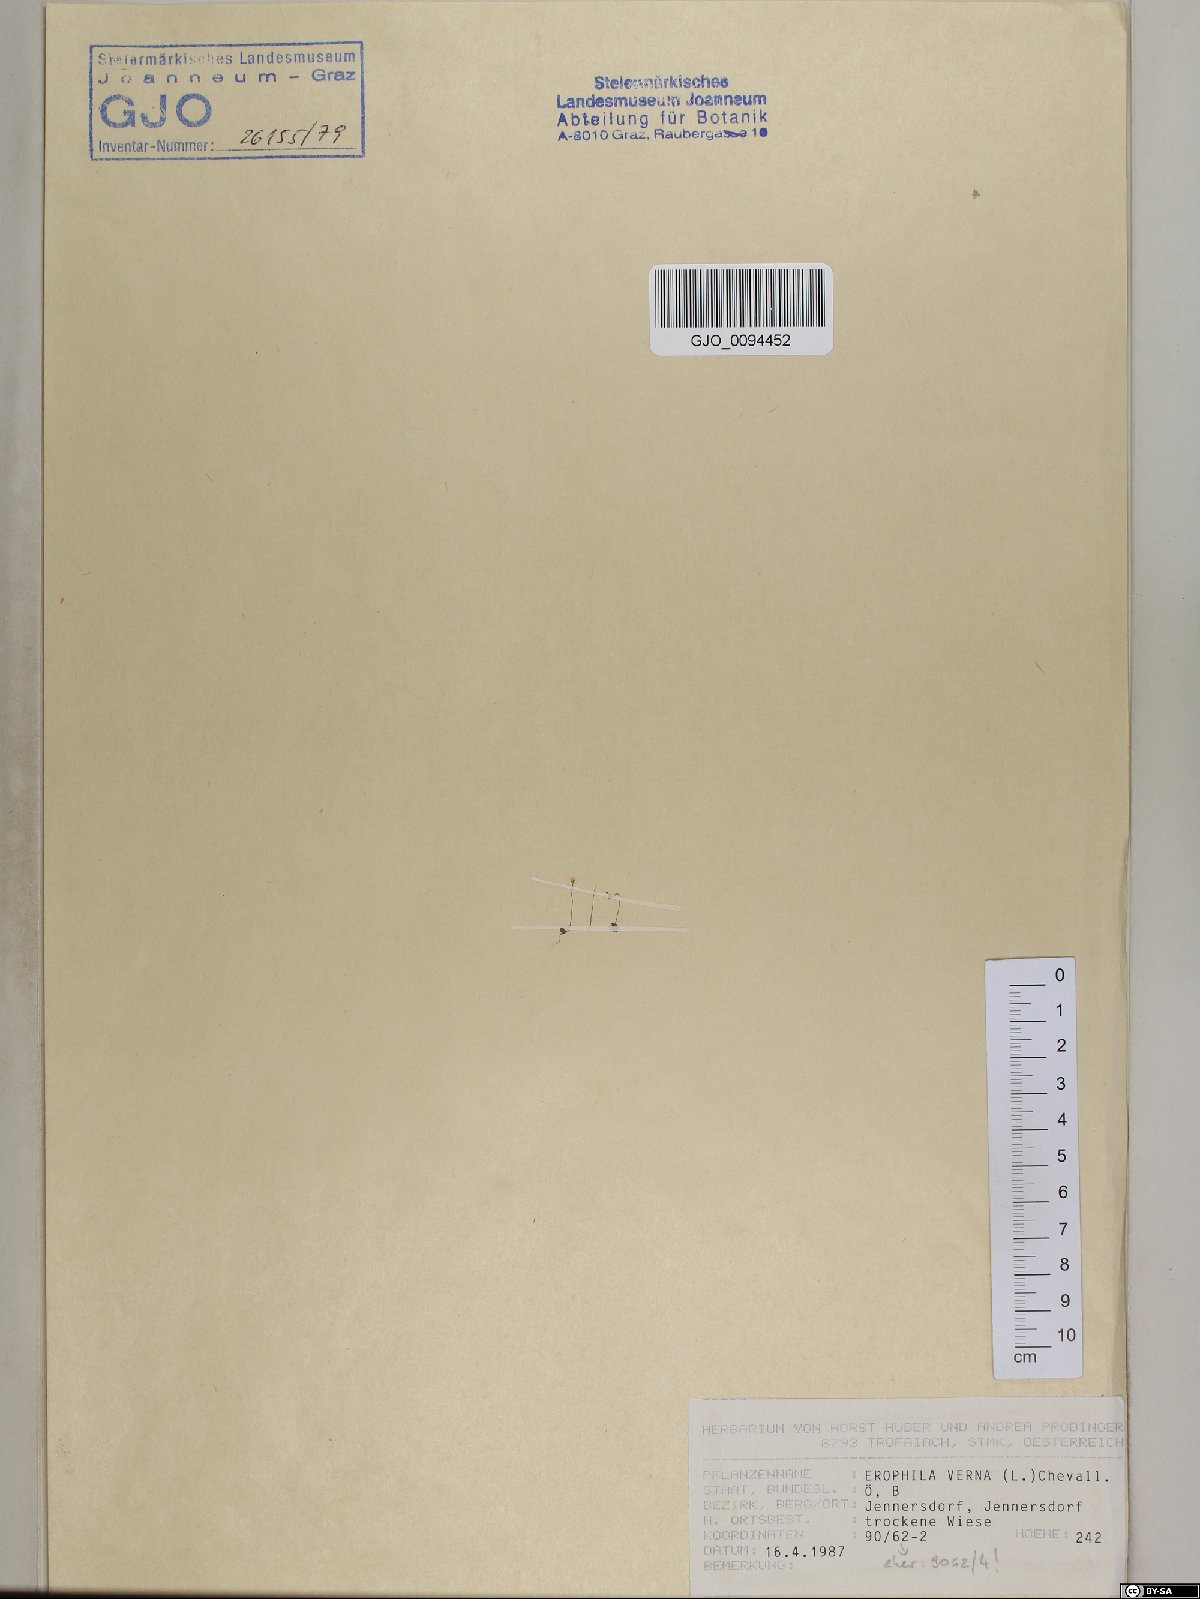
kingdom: Plantae
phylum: Tracheophyta
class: Magnoliopsida
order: Brassicales
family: Brassicaceae
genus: Draba
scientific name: Draba verna
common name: Spring draba
